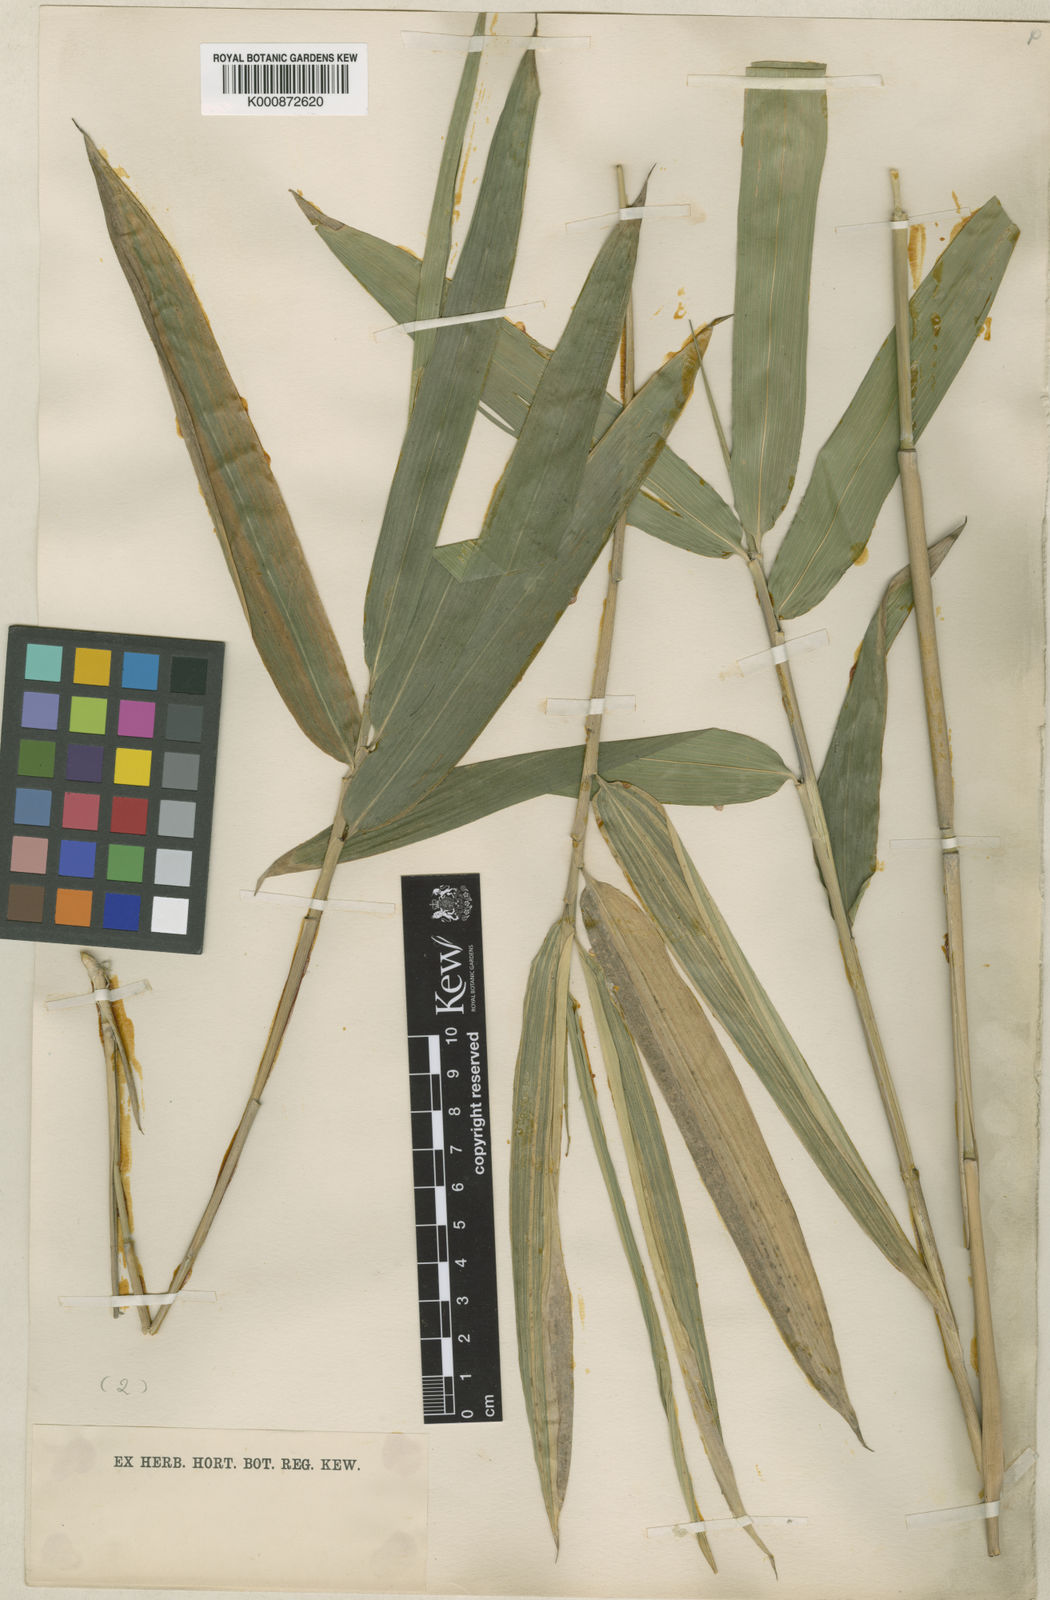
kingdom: Plantae
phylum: Tracheophyta
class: Liliopsida
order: Poales
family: Poaceae
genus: Pleioblastus
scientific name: Pleioblastus argenteostriatus
